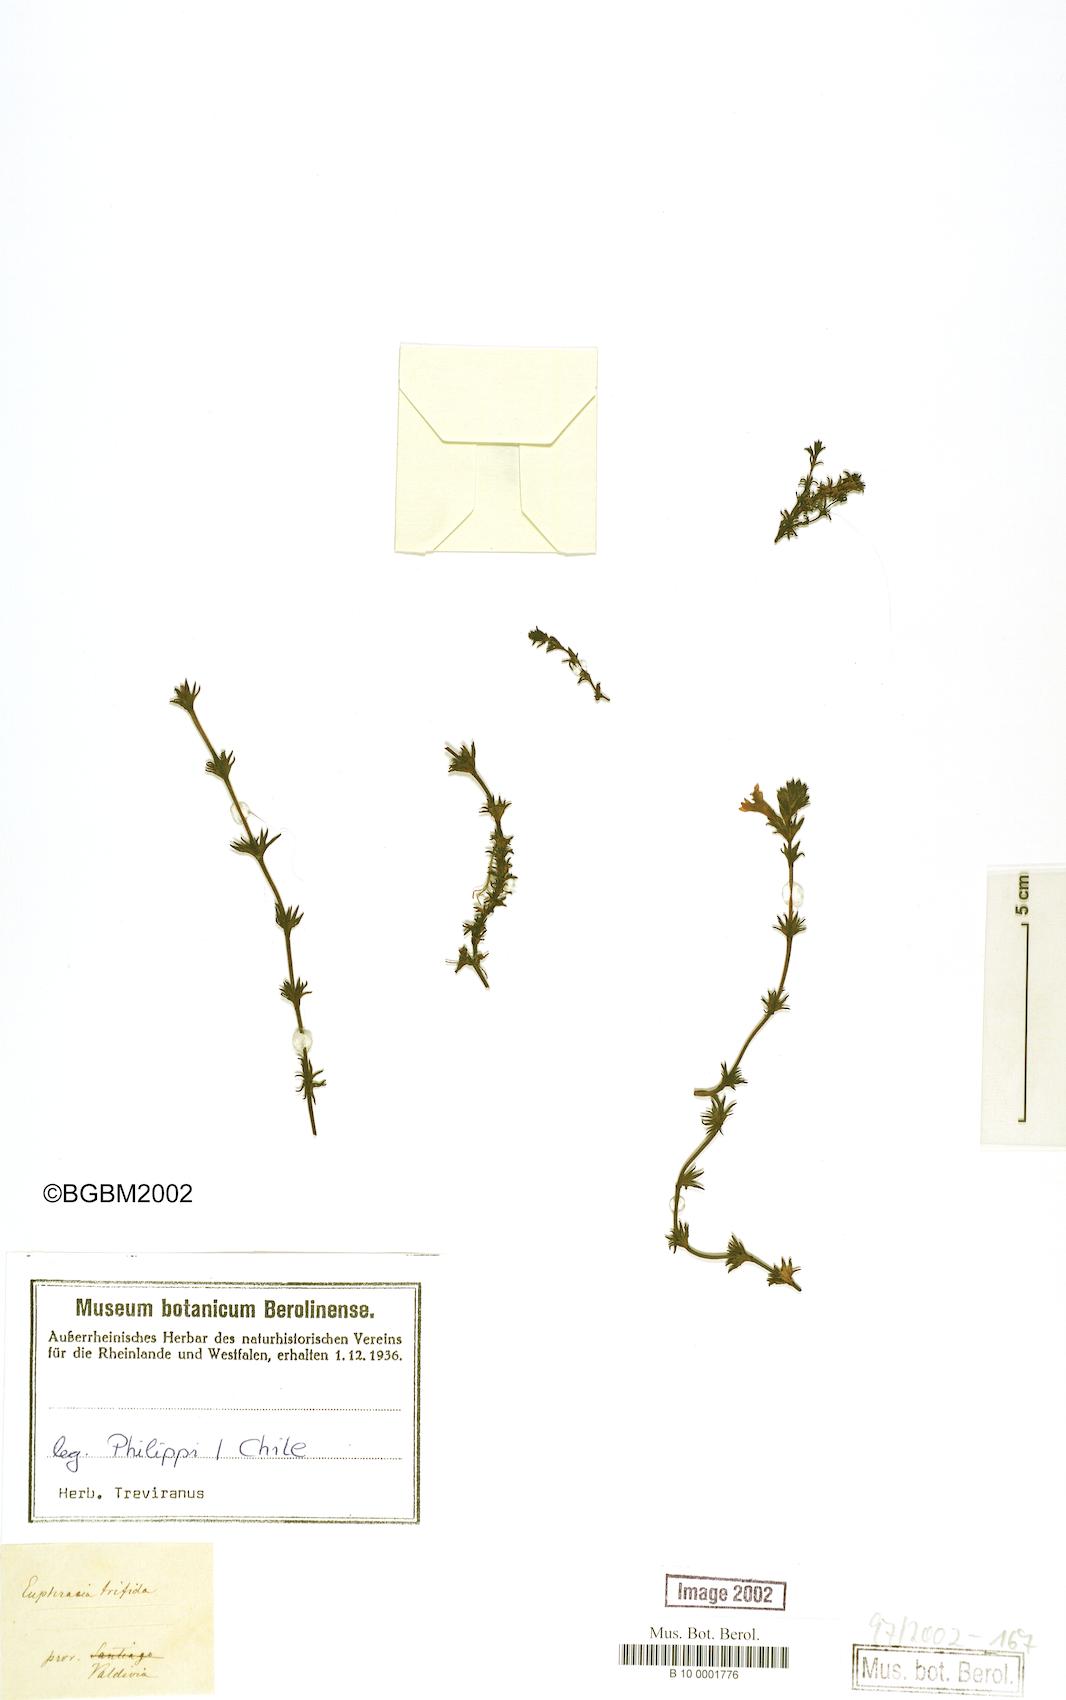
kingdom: Plantae
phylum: Tracheophyta
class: Magnoliopsida
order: Lamiales
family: Orobanchaceae
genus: Euphrasia
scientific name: Euphrasia trifida
